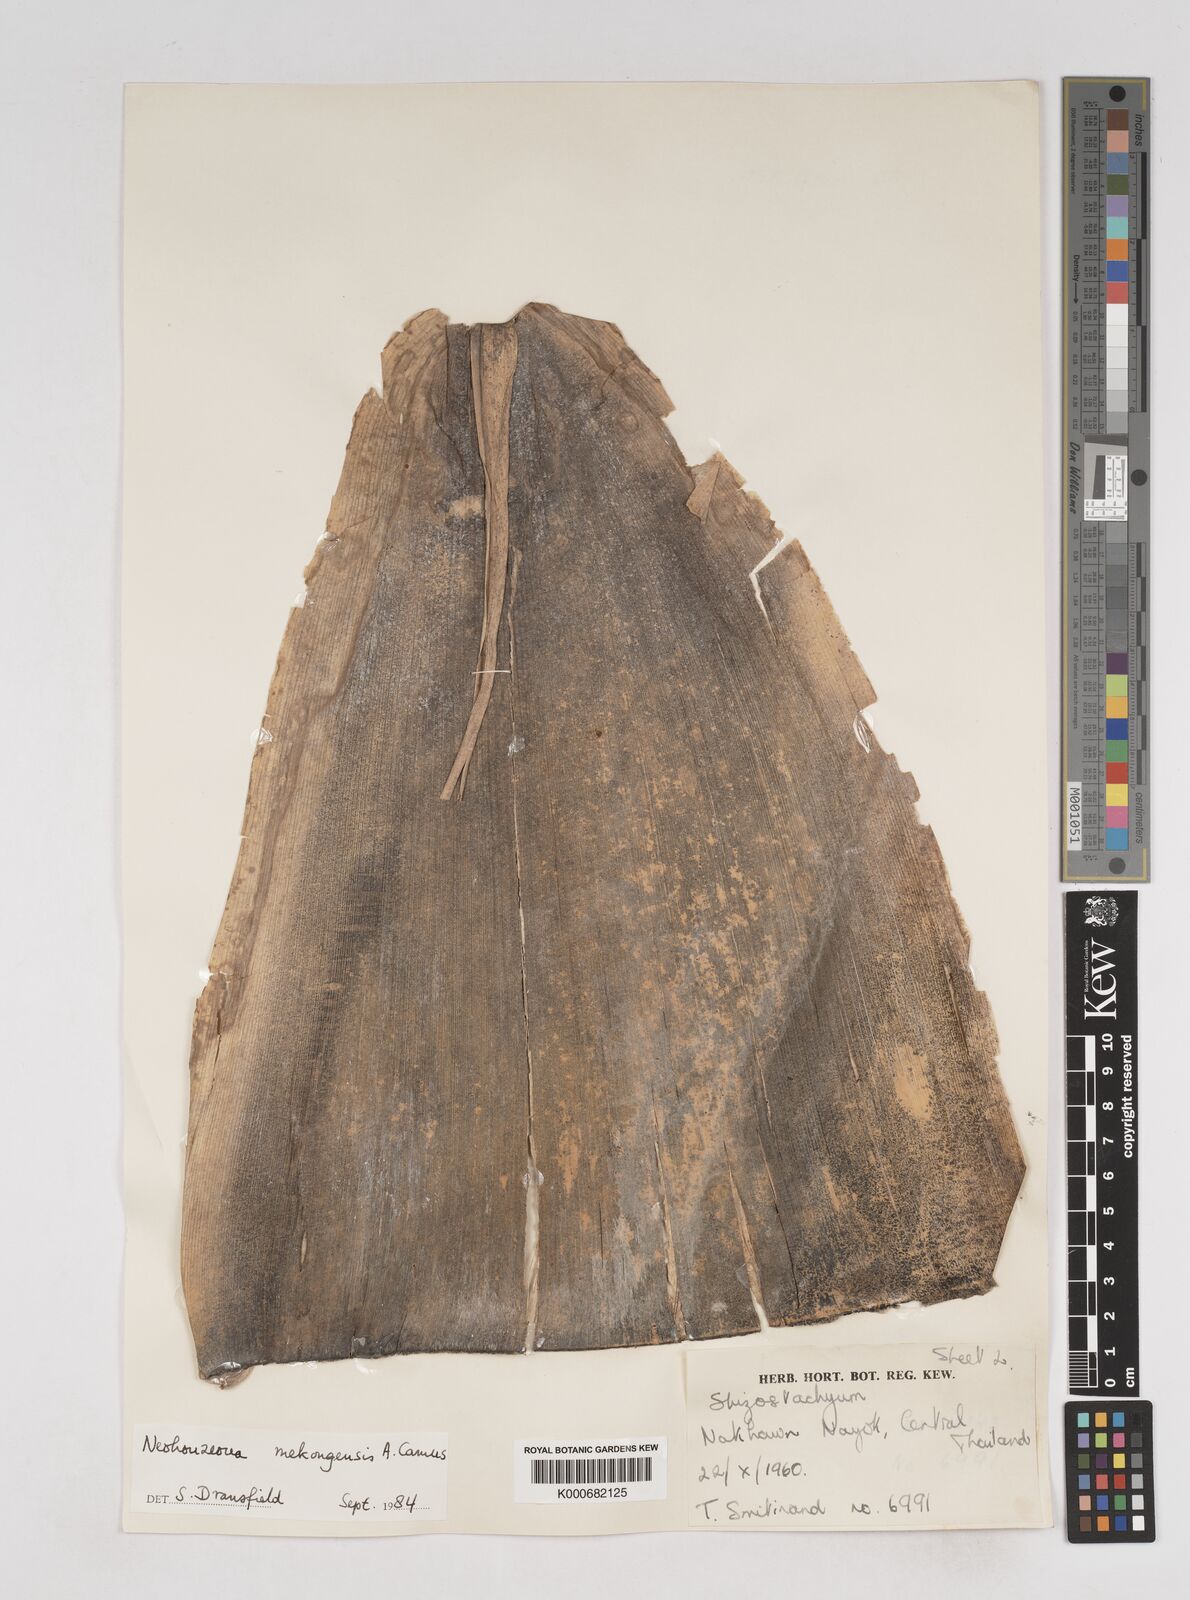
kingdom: Plantae
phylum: Tracheophyta
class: Liliopsida
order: Poales
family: Poaceae
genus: Schizostachyum
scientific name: Schizostachyum mekongensis
